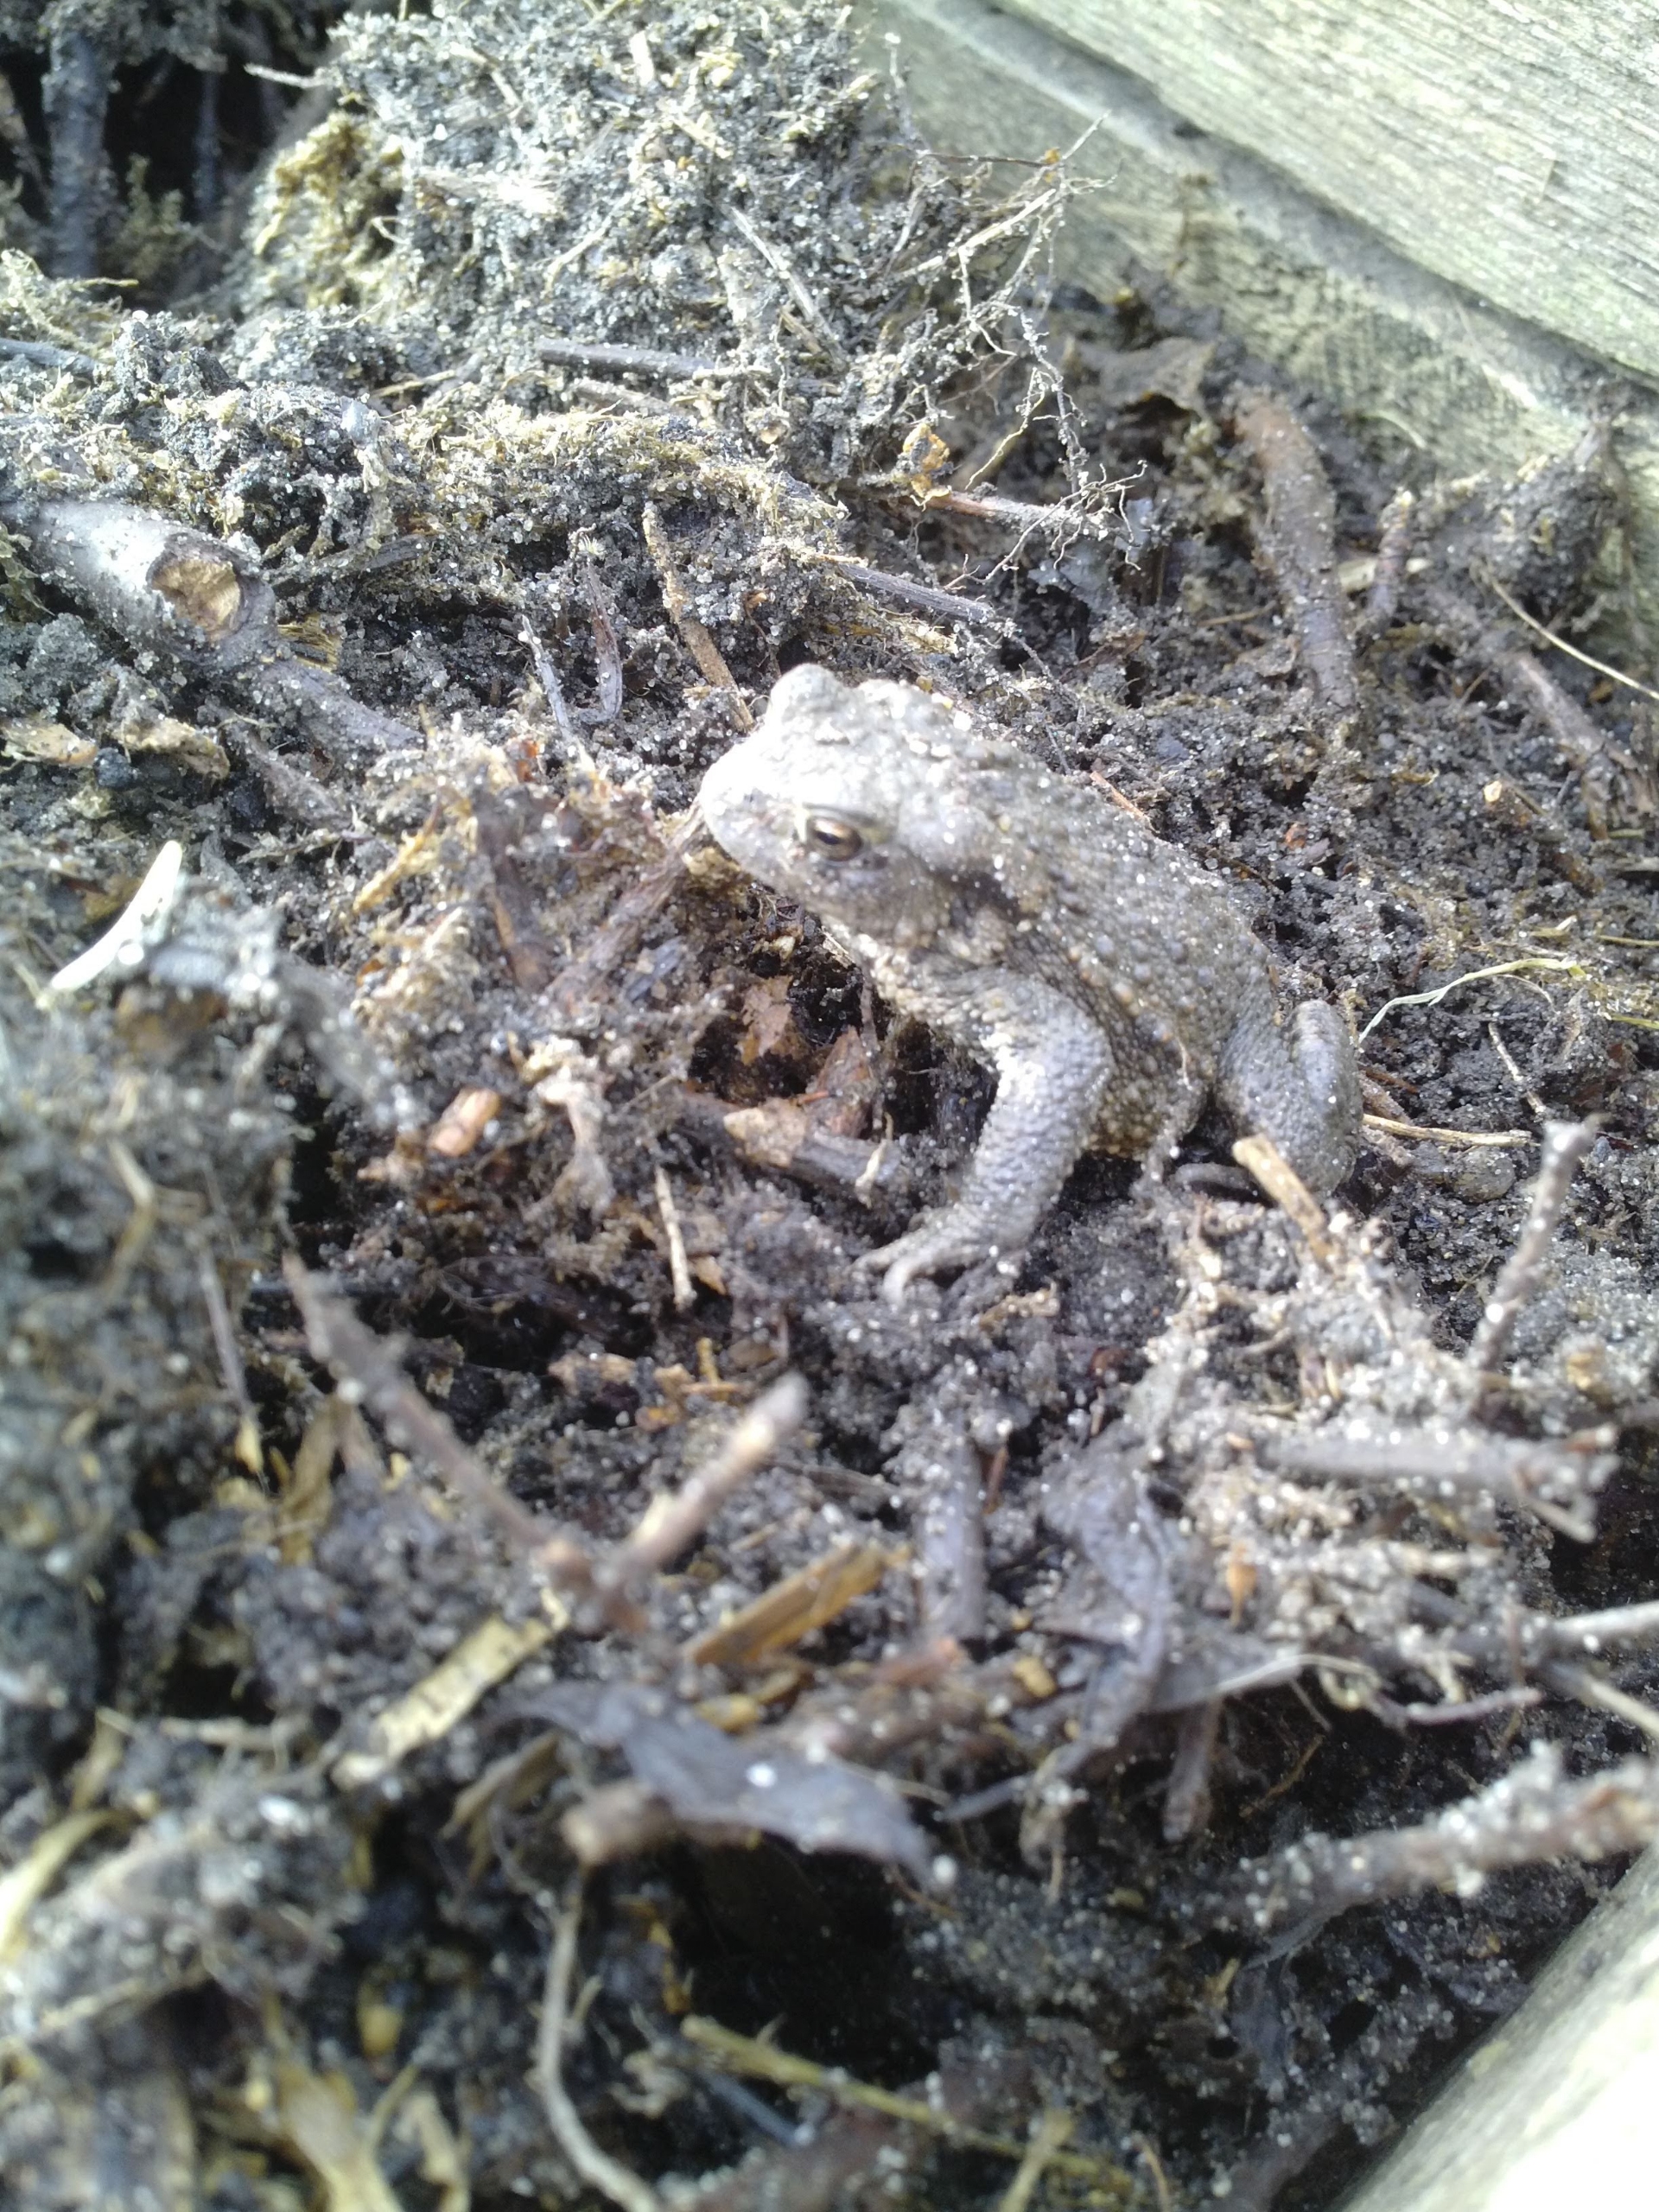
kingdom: Animalia
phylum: Chordata
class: Amphibia
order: Anura
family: Bufonidae
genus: Bufo
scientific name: Bufo bufo
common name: Skrubtudse
